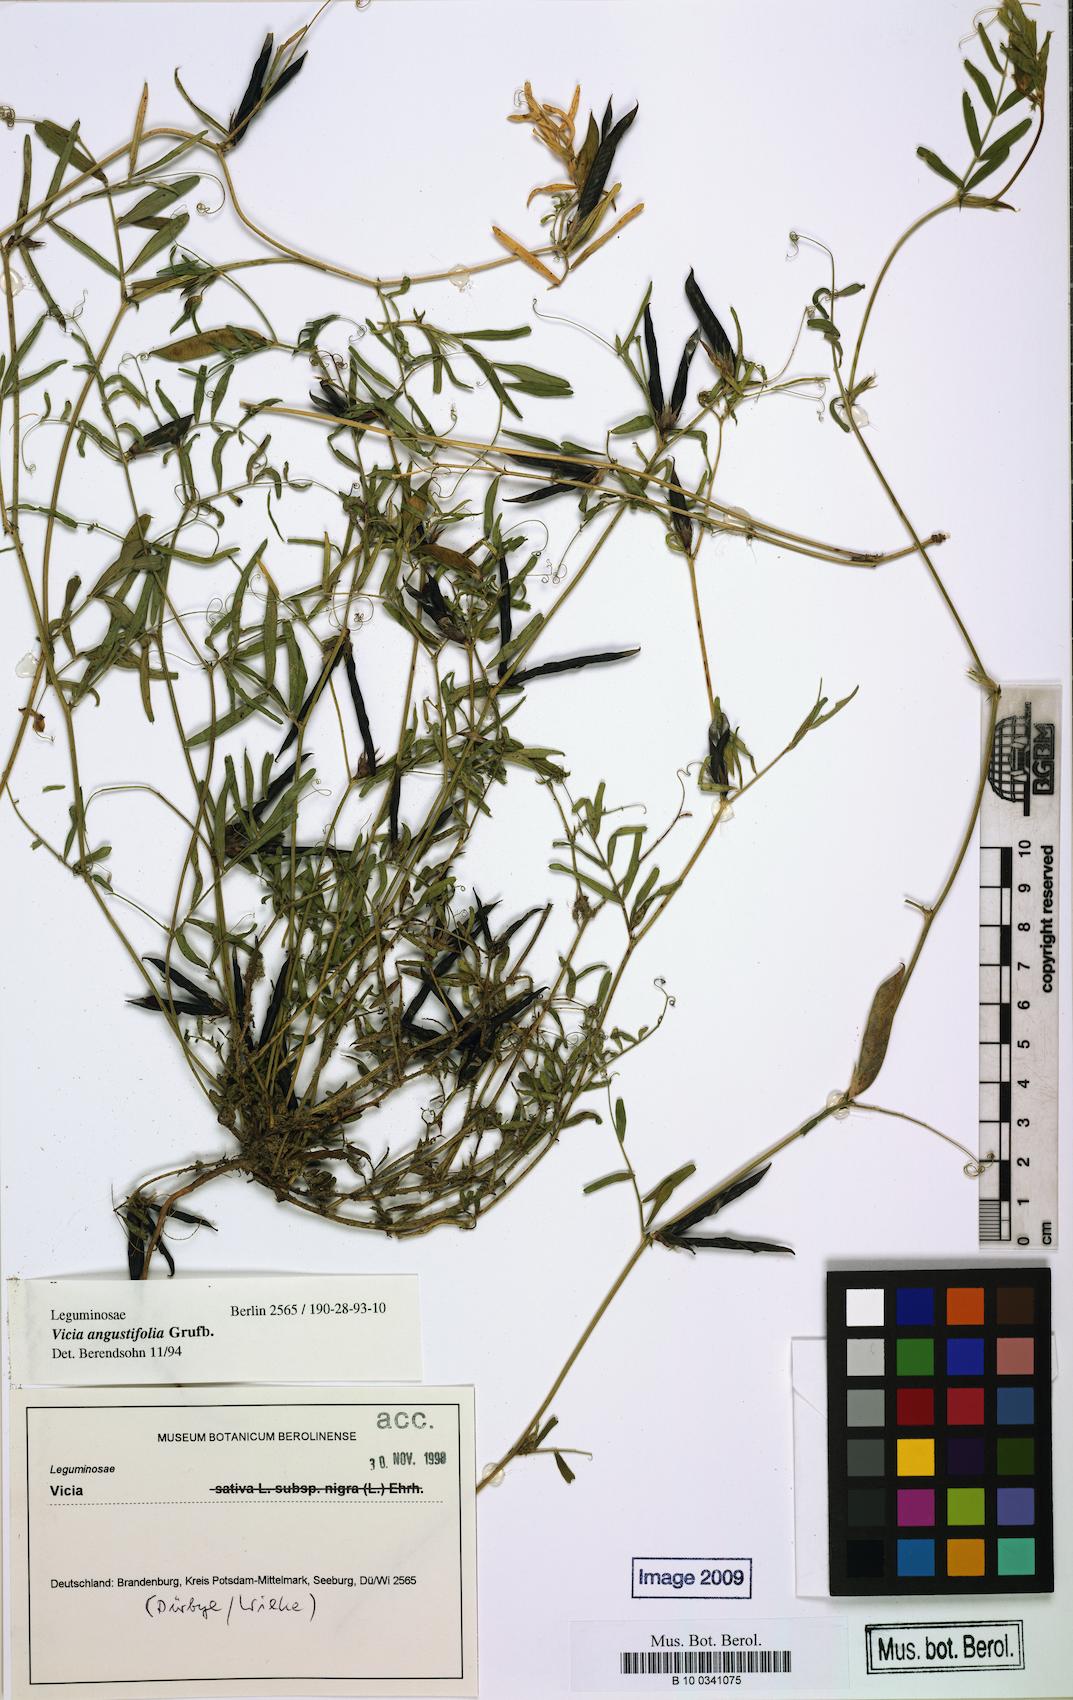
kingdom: Plantae
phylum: Tracheophyta
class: Magnoliopsida
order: Fabales
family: Fabaceae
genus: Vicia
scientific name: Vicia sativa
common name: Garden vetch
